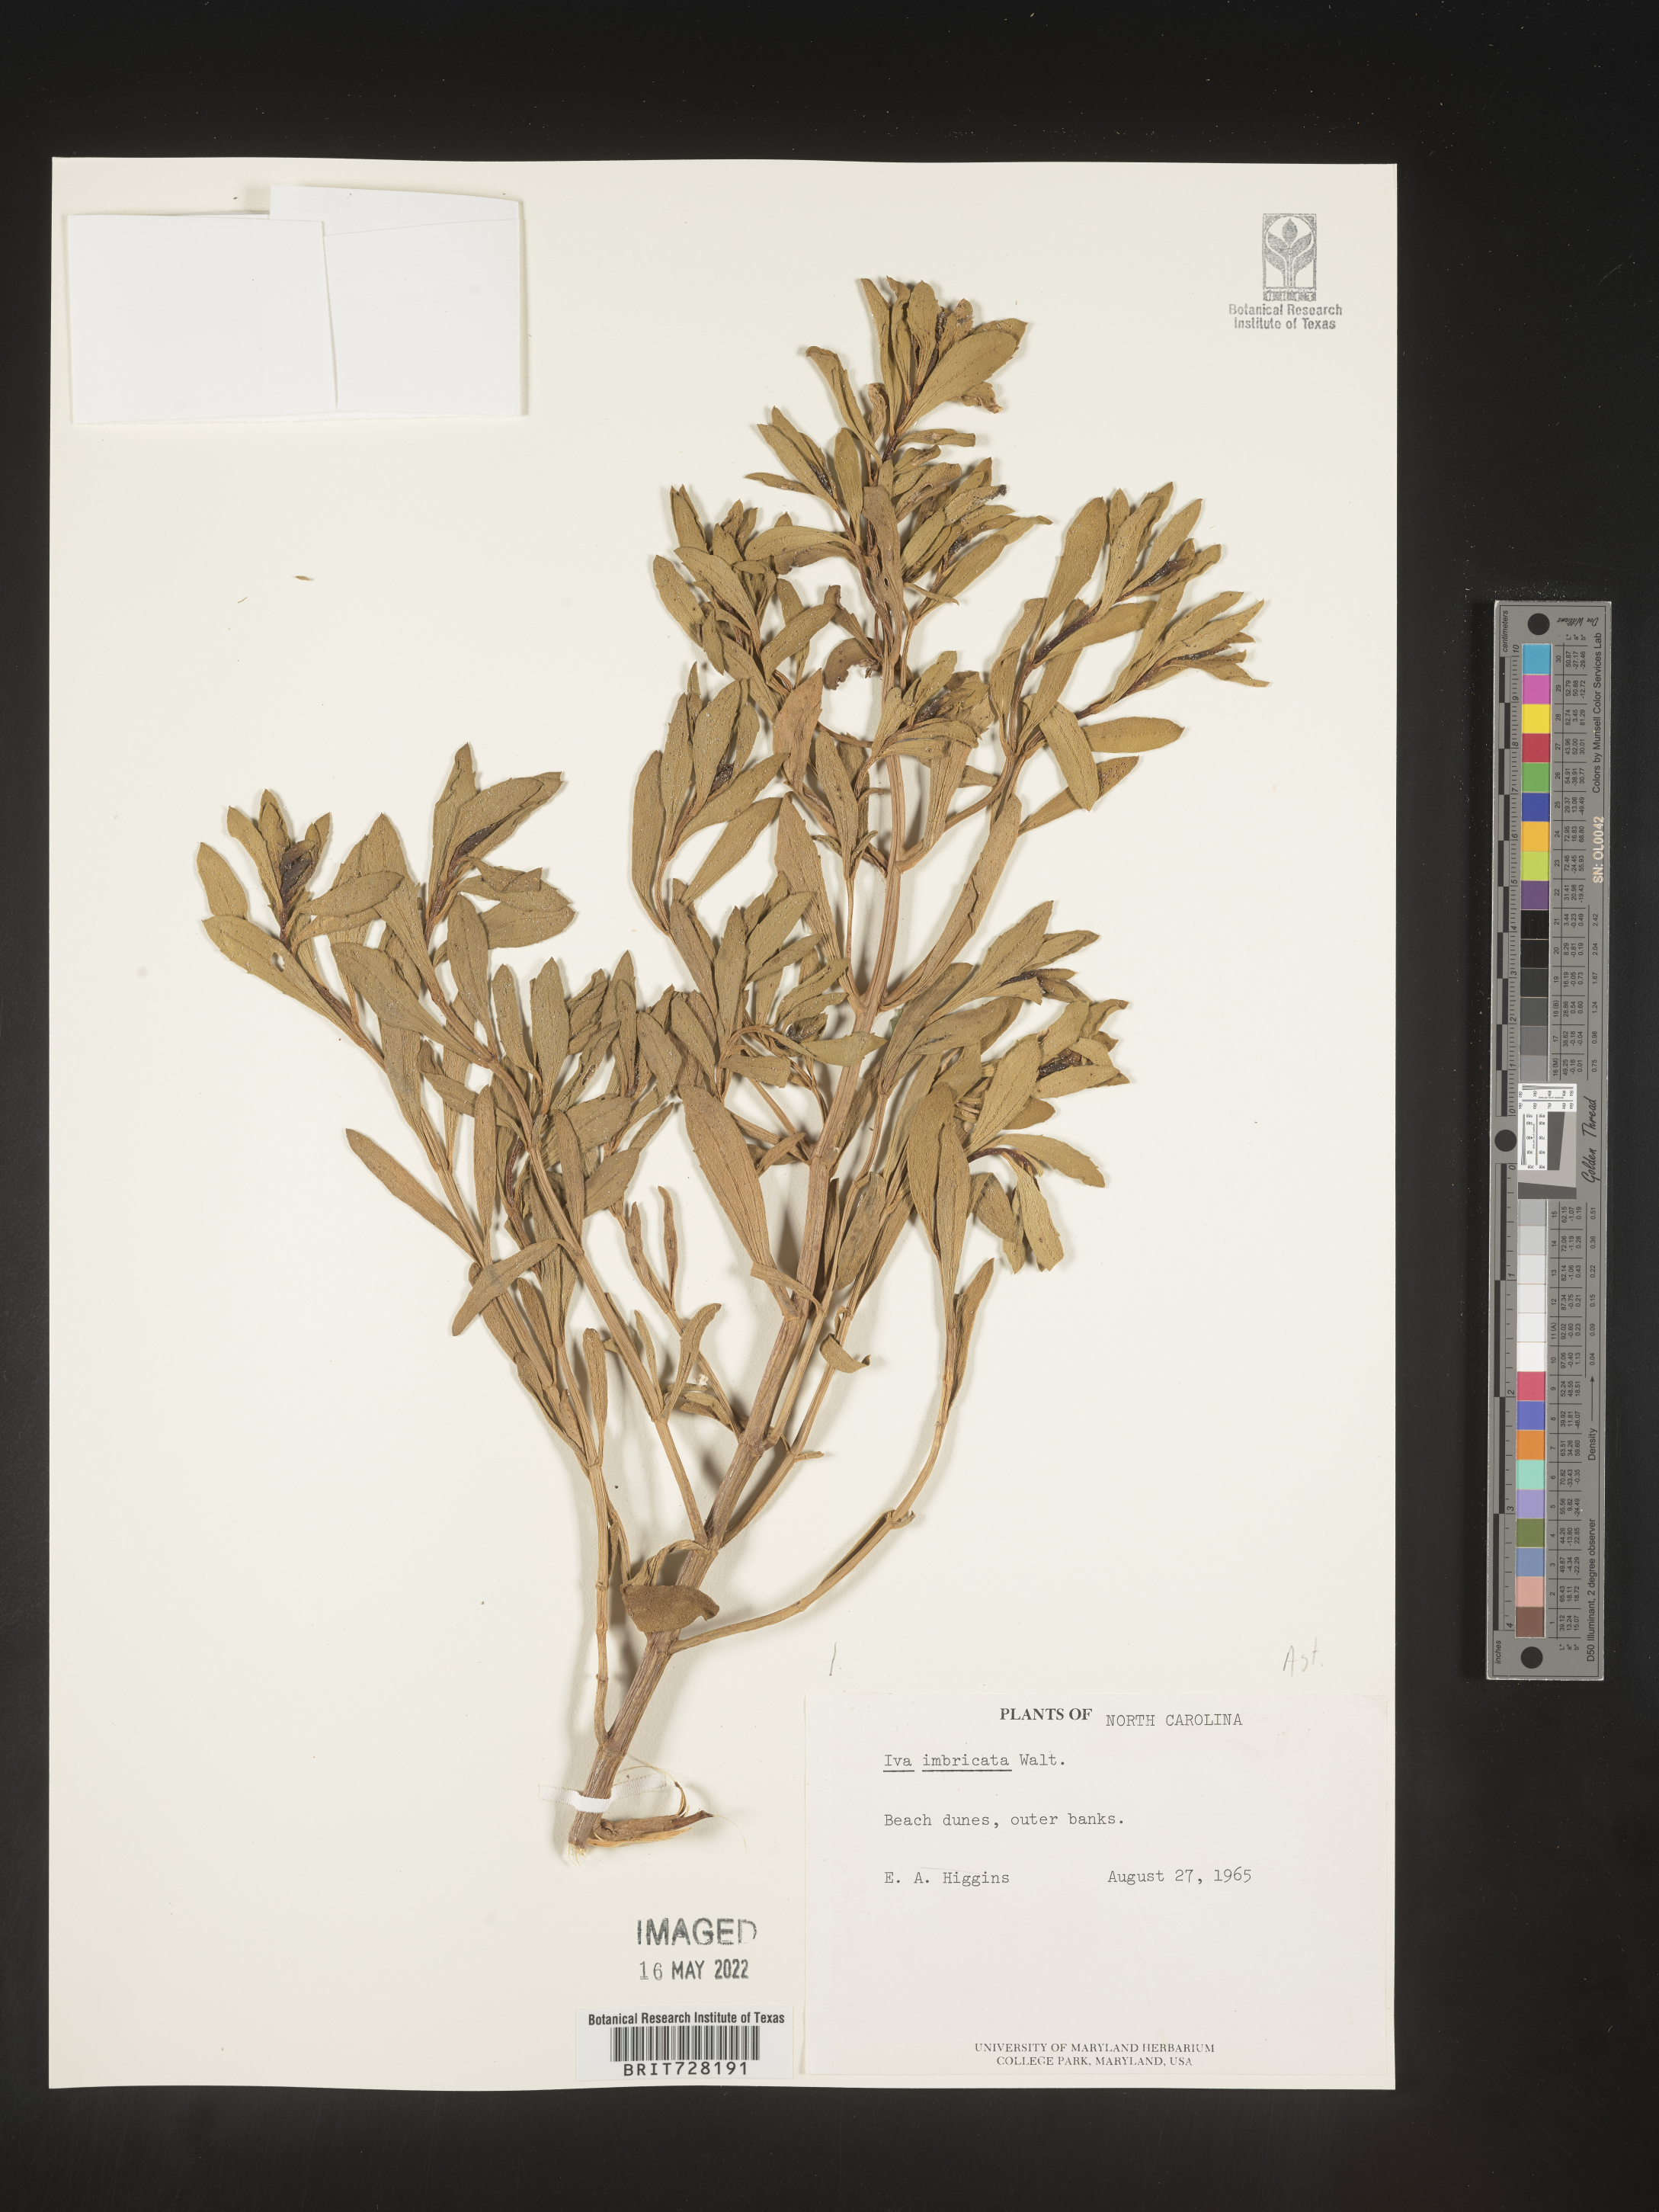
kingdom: Plantae
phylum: Tracheophyta
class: Magnoliopsida
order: Asterales
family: Asteraceae
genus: Iva
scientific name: Iva imbricata
